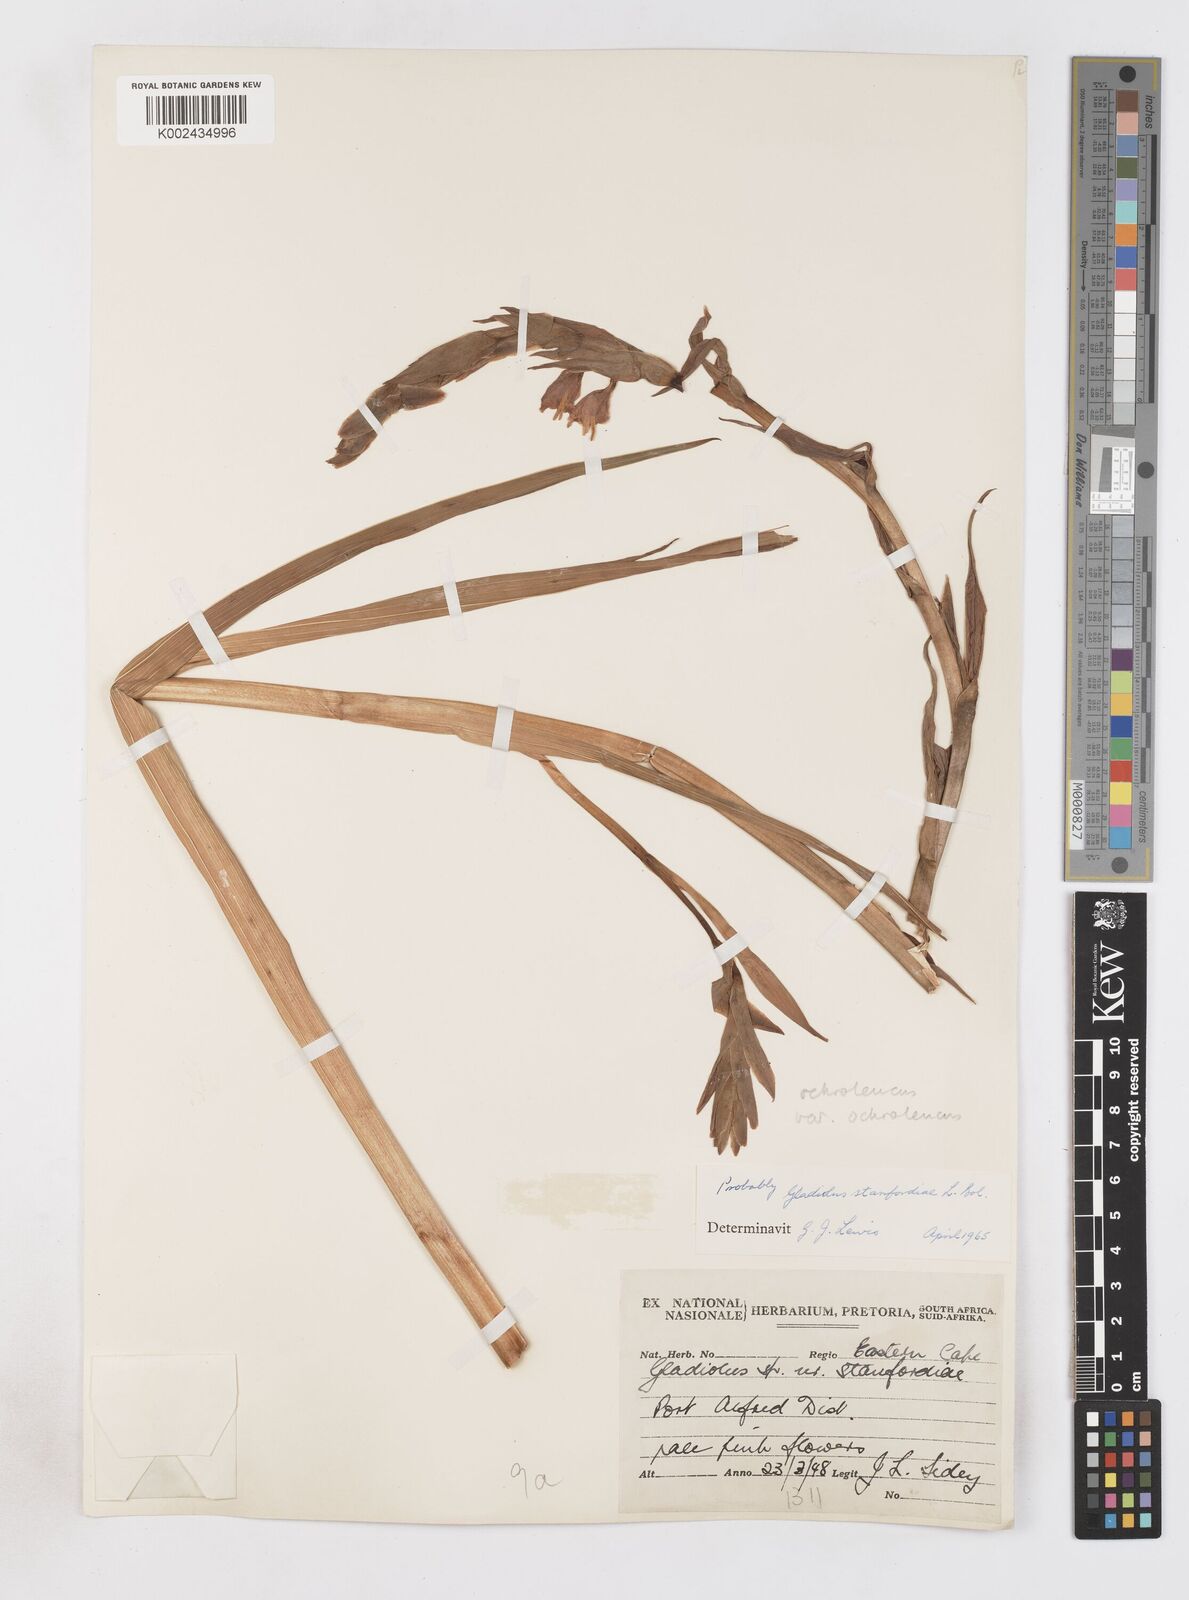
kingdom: Plantae
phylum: Tracheophyta
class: Liliopsida
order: Asparagales
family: Iridaceae
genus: Gladiolus
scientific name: Gladiolus ochroleucus
